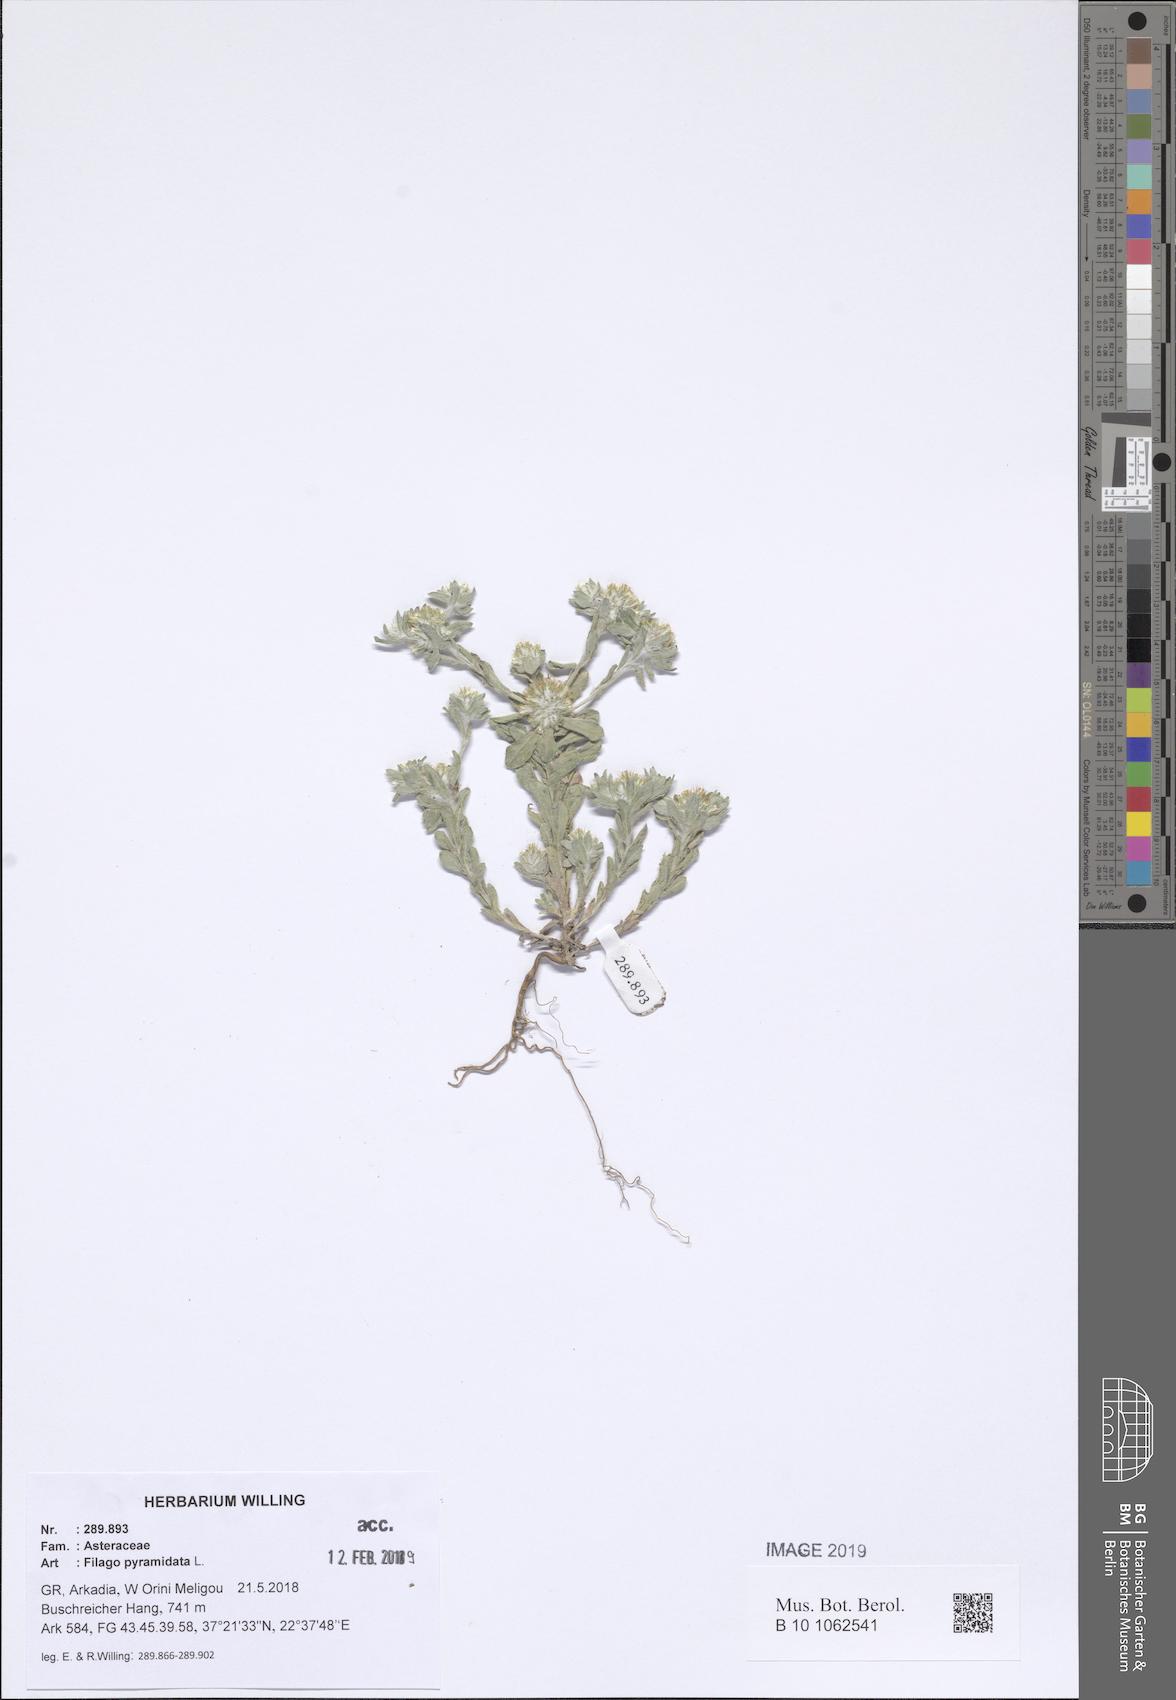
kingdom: Plantae
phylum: Tracheophyta
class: Magnoliopsida
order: Asterales
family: Asteraceae
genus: Filago
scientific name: Filago pyramidata
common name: Broad-leaved cudweed
